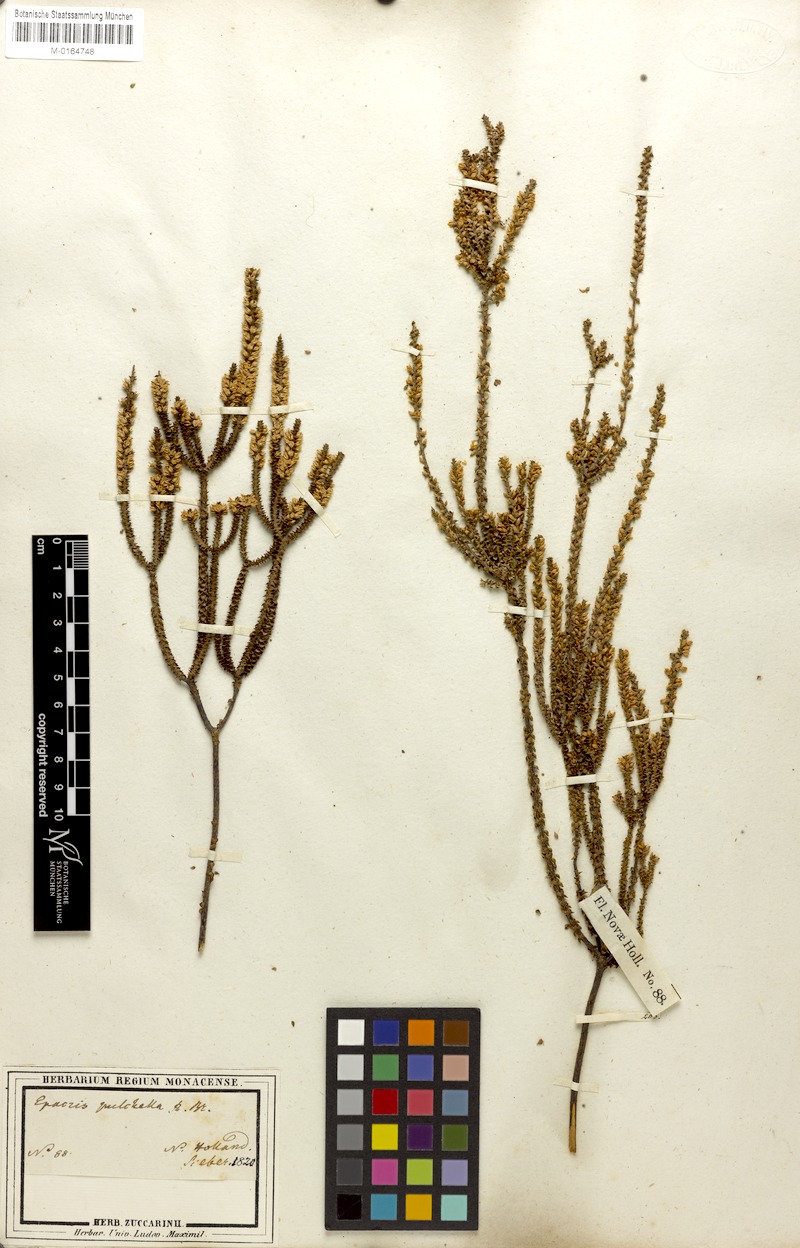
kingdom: Plantae
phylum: Tracheophyta
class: Magnoliopsida
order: Ericales
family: Ericaceae
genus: Epacris
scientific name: Epacris microphylla
